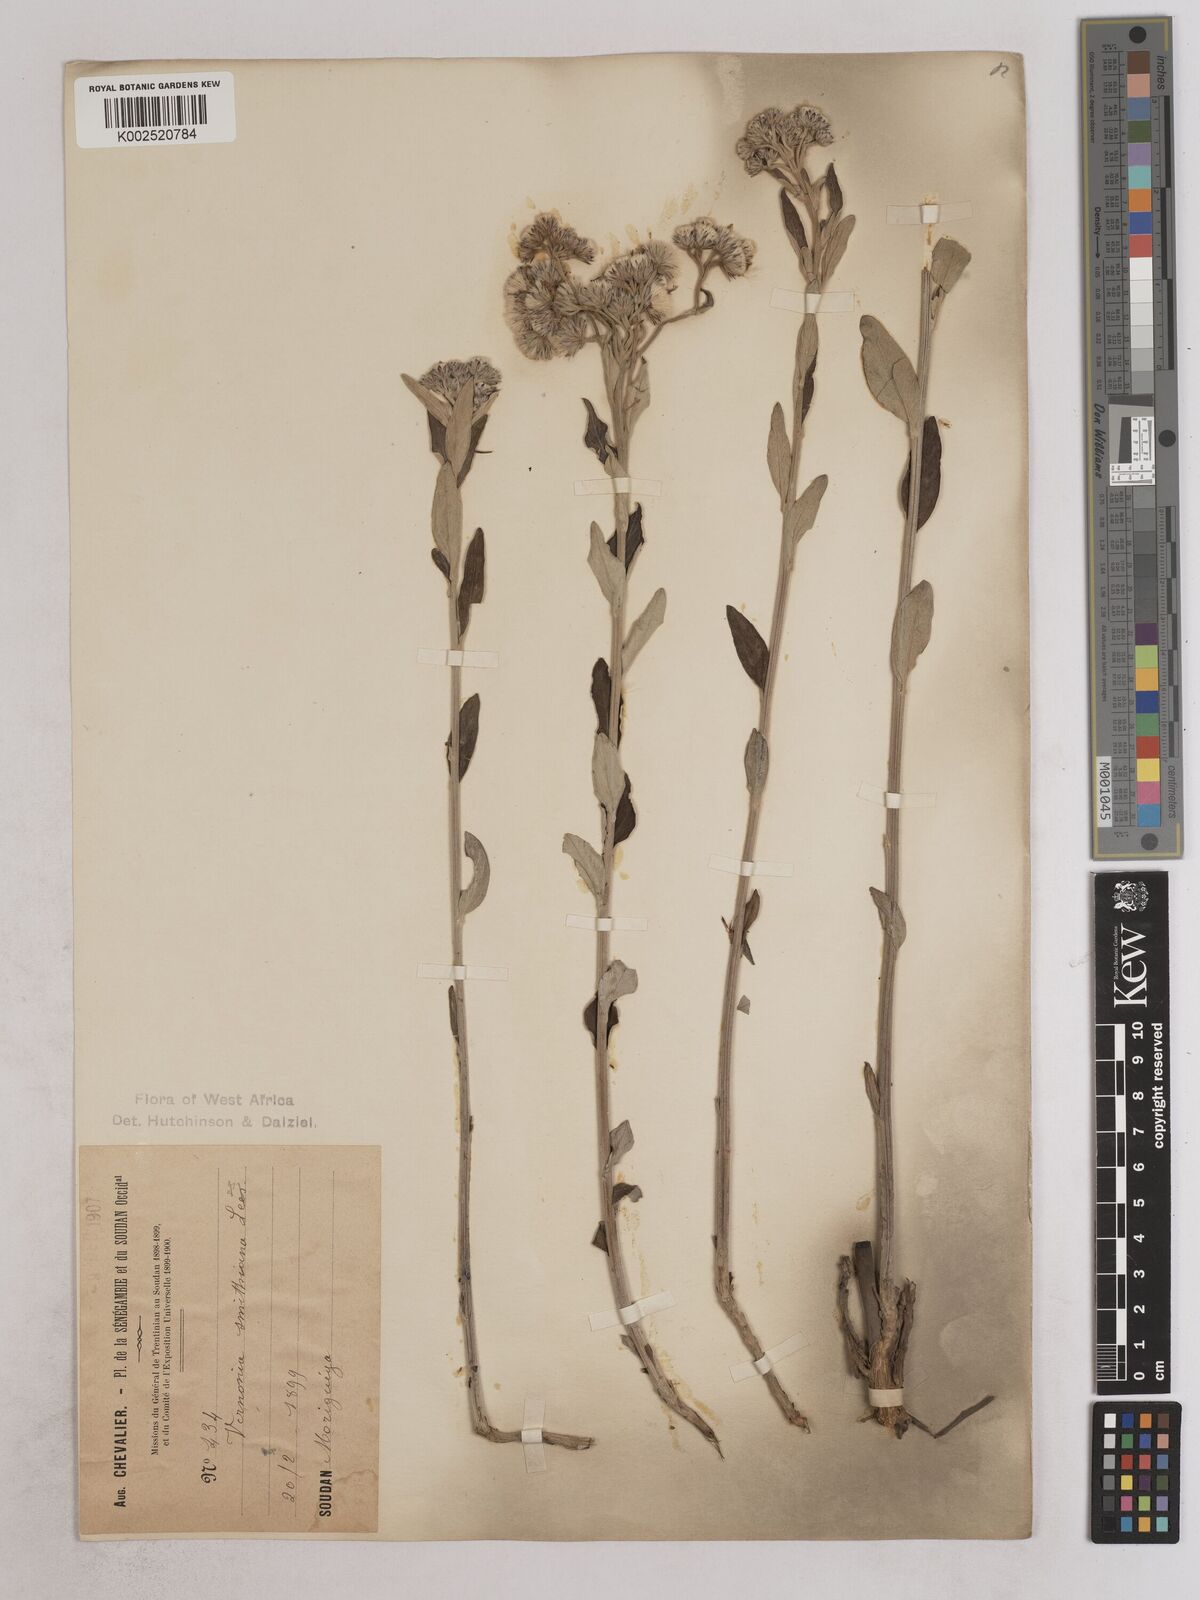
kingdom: Plantae
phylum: Tracheophyta
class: Magnoliopsida
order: Asterales
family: Asteraceae
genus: Hilliardiella
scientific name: Hilliardiella smithiana
